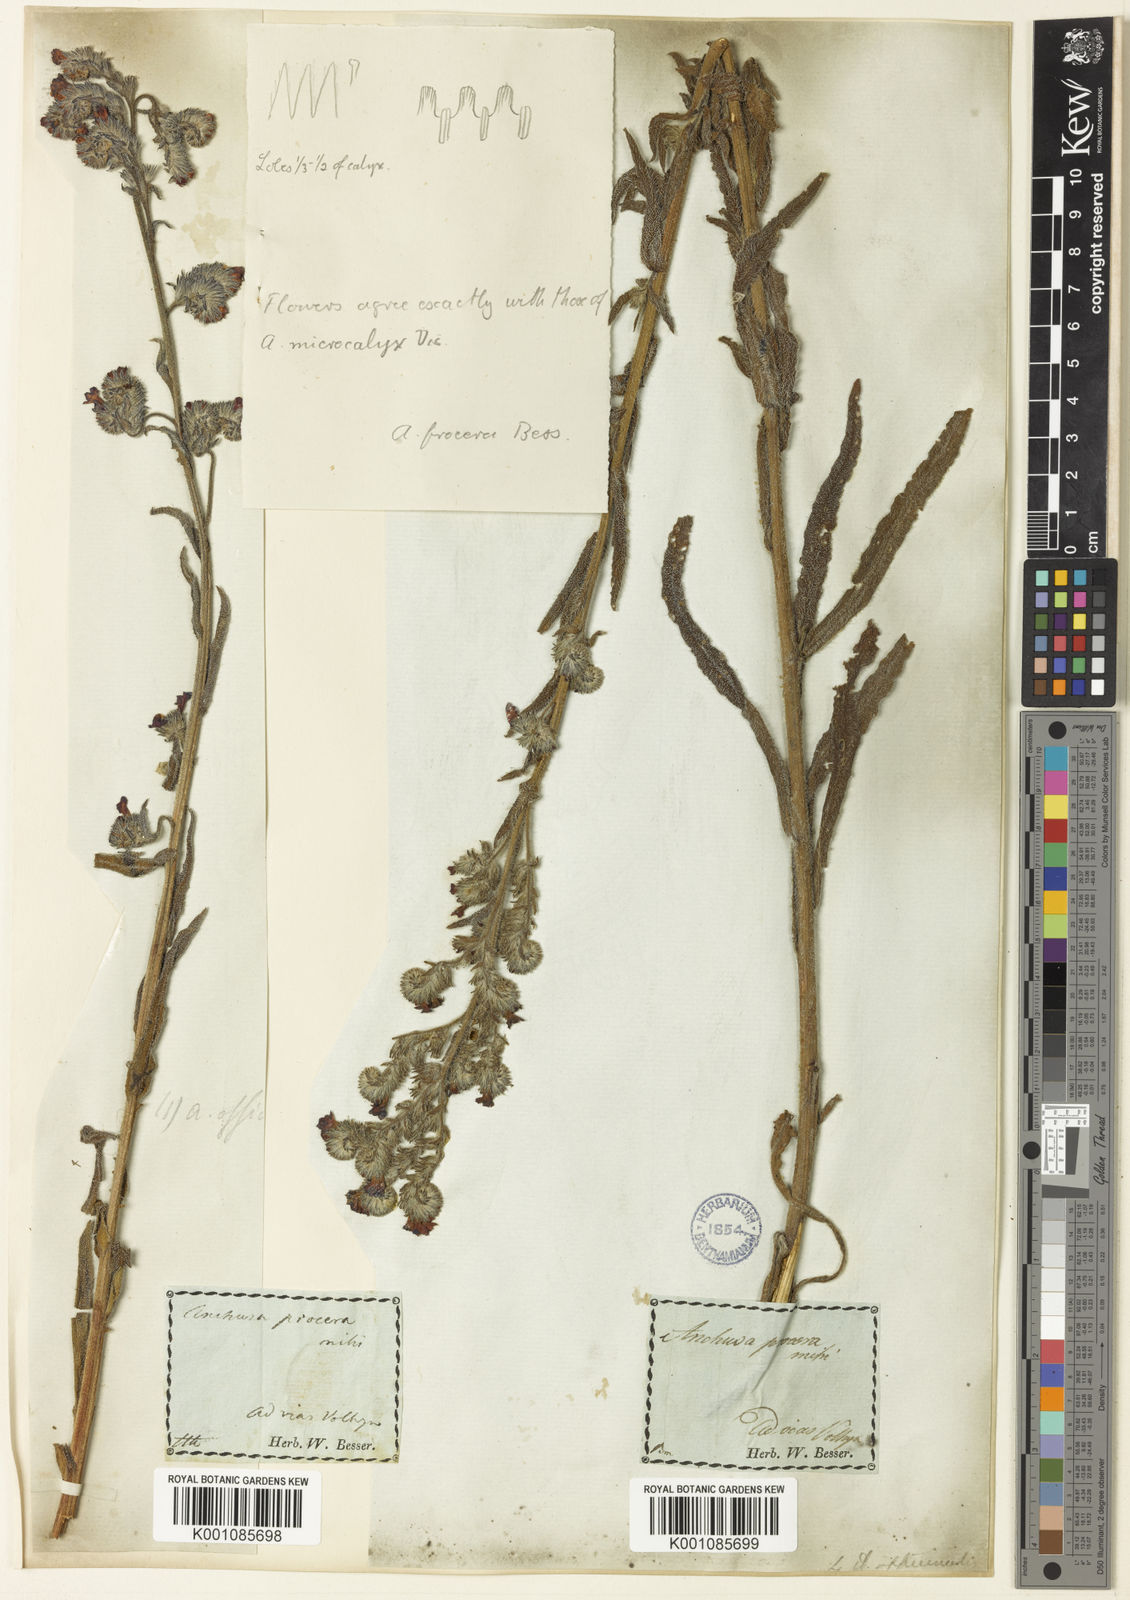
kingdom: Plantae
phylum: Tracheophyta
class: Magnoliopsida
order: Boraginales
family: Boraginaceae
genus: Anchusa
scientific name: Anchusa officinalis
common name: Alkanet
